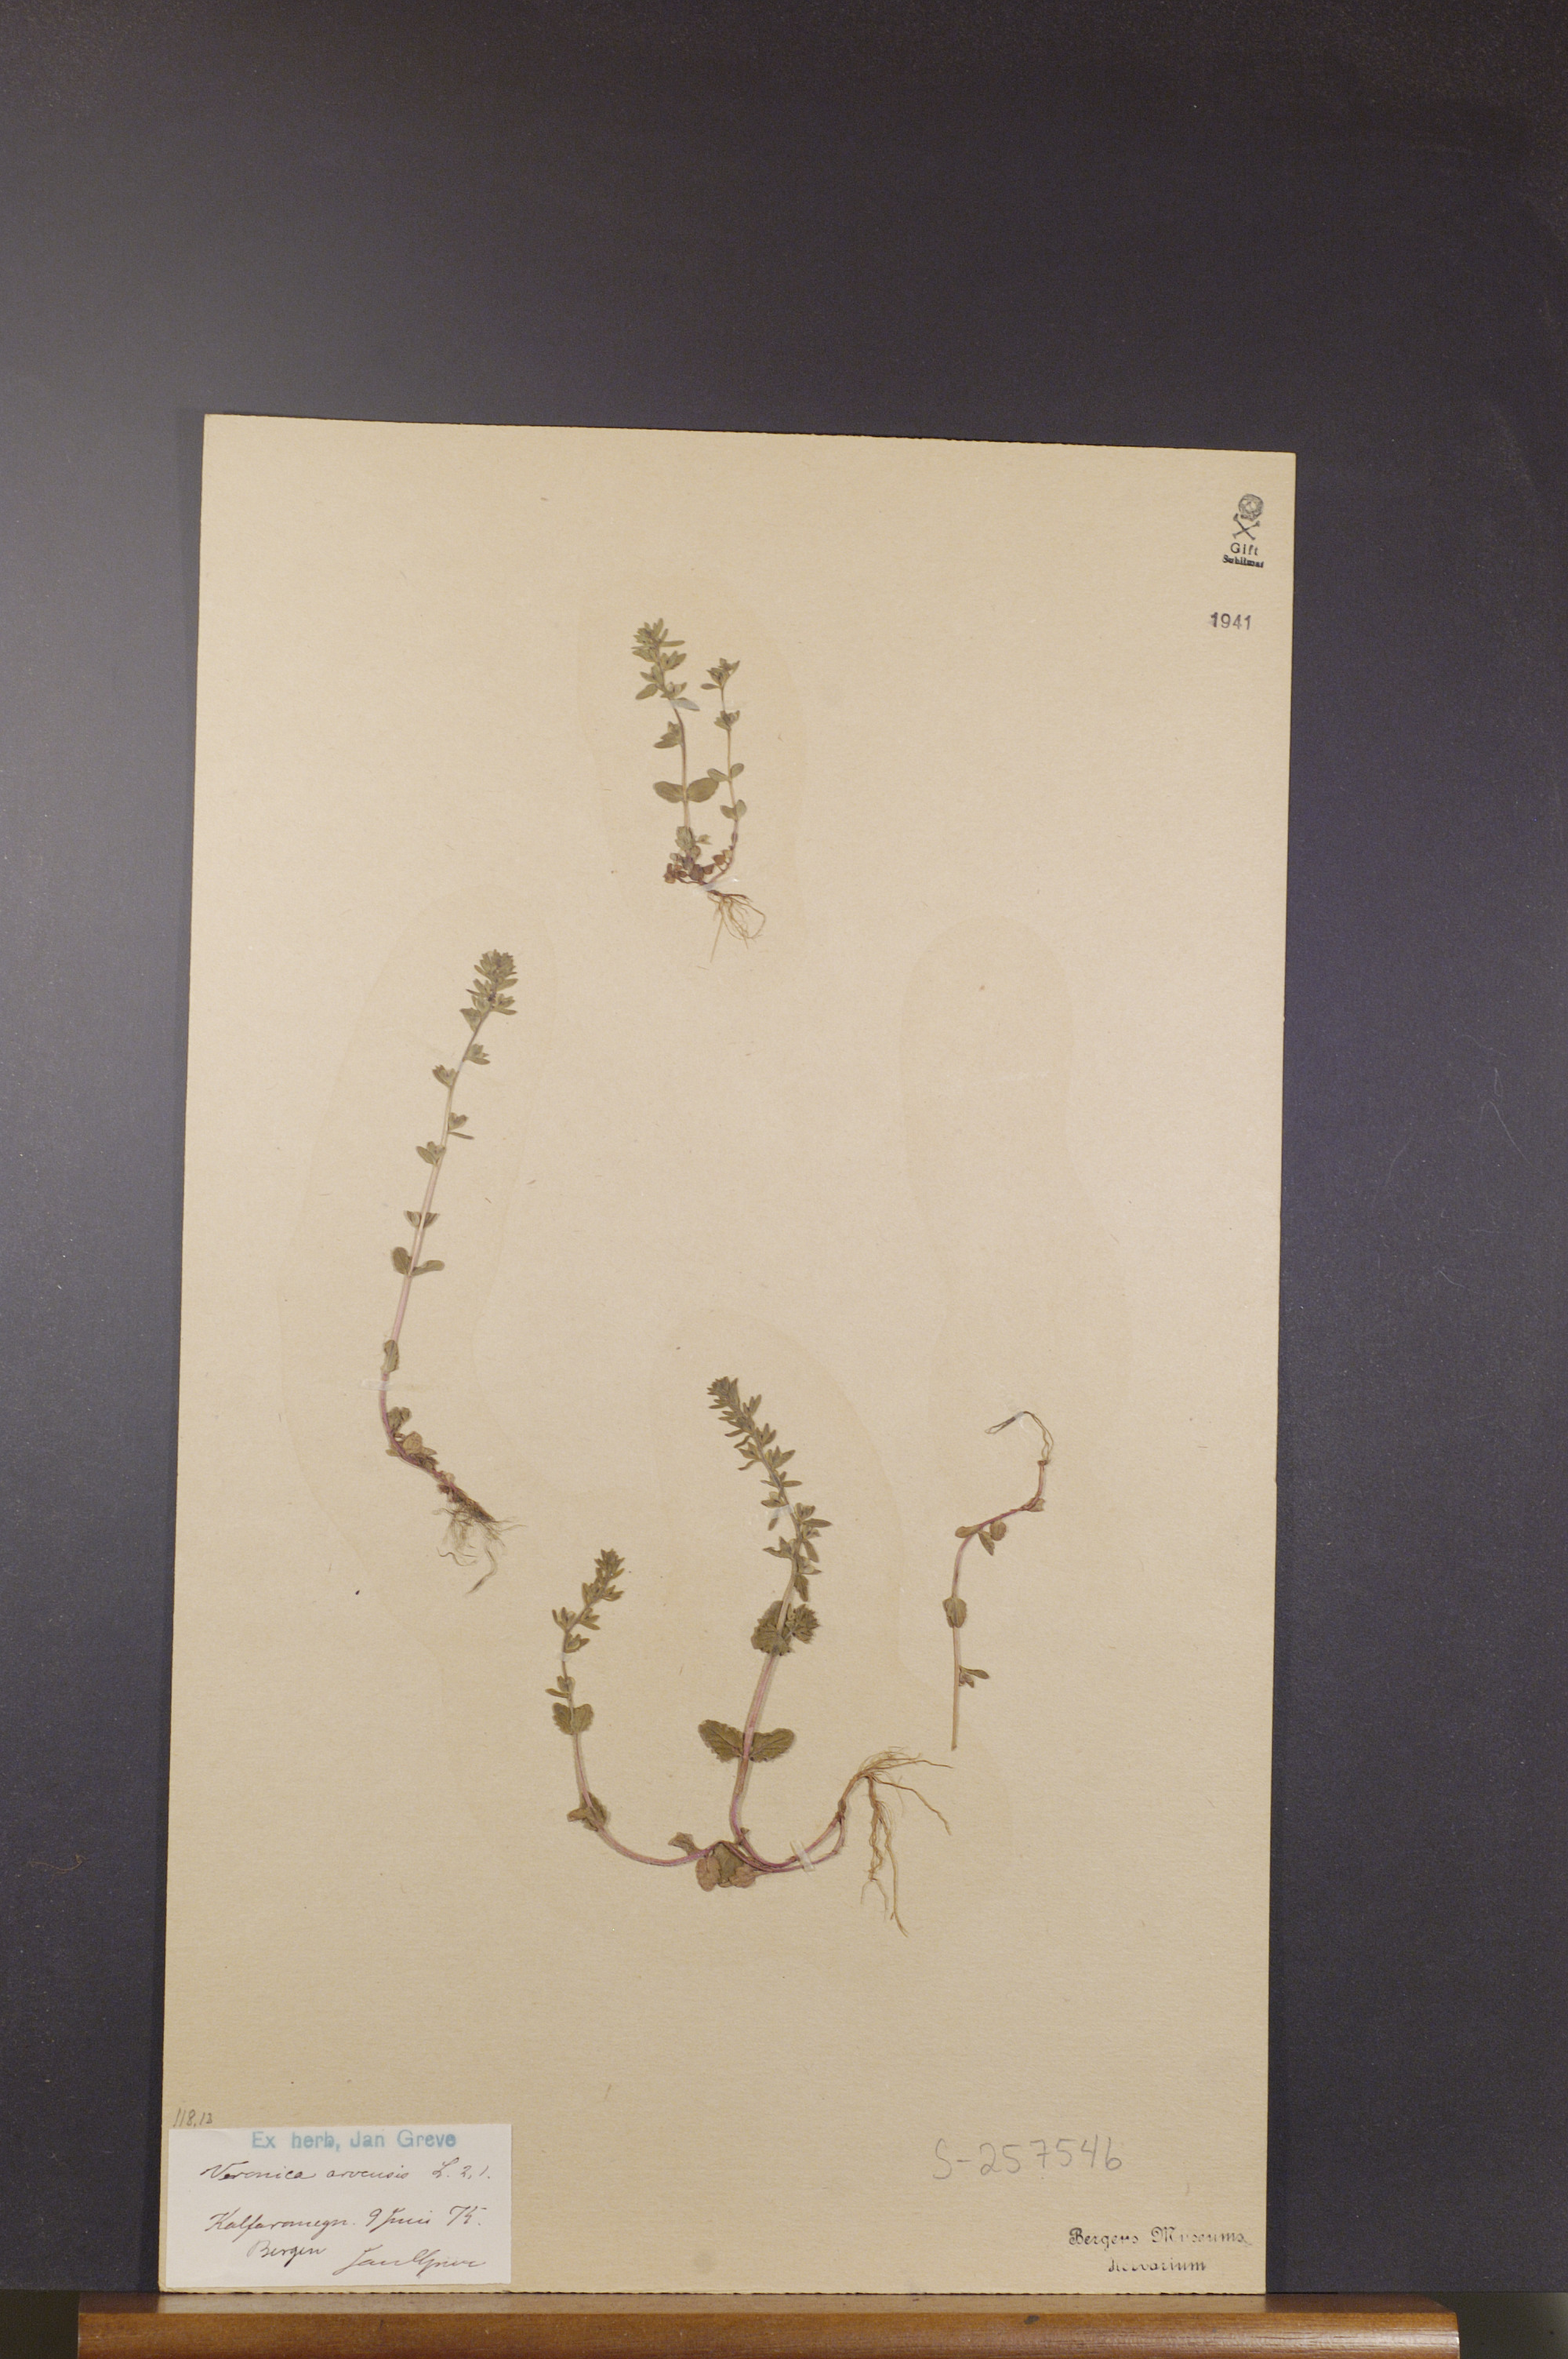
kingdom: Plantae
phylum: Tracheophyta
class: Magnoliopsida
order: Lamiales
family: Plantaginaceae
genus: Veronica
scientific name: Veronica arvensis
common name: Corn speedwell
